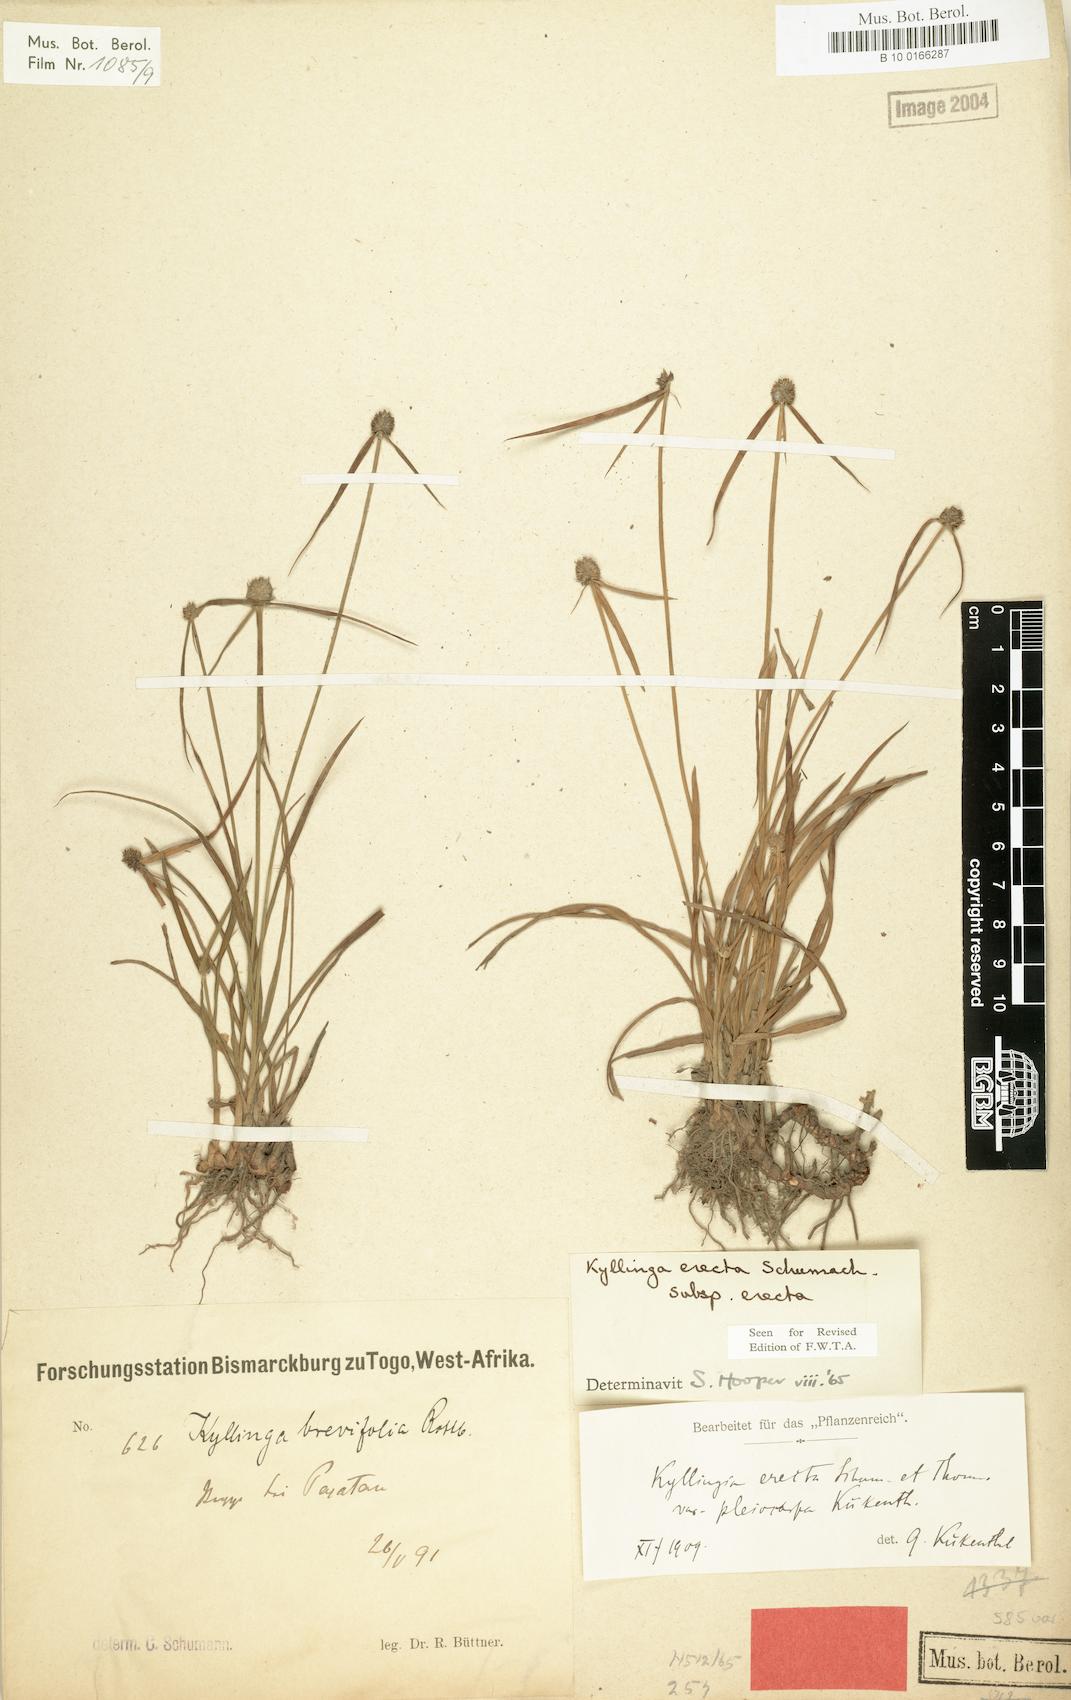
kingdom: Plantae
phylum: Tracheophyta
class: Liliopsida
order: Poales
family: Cyperaceae
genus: Cyperus
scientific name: Cyperus erectus
